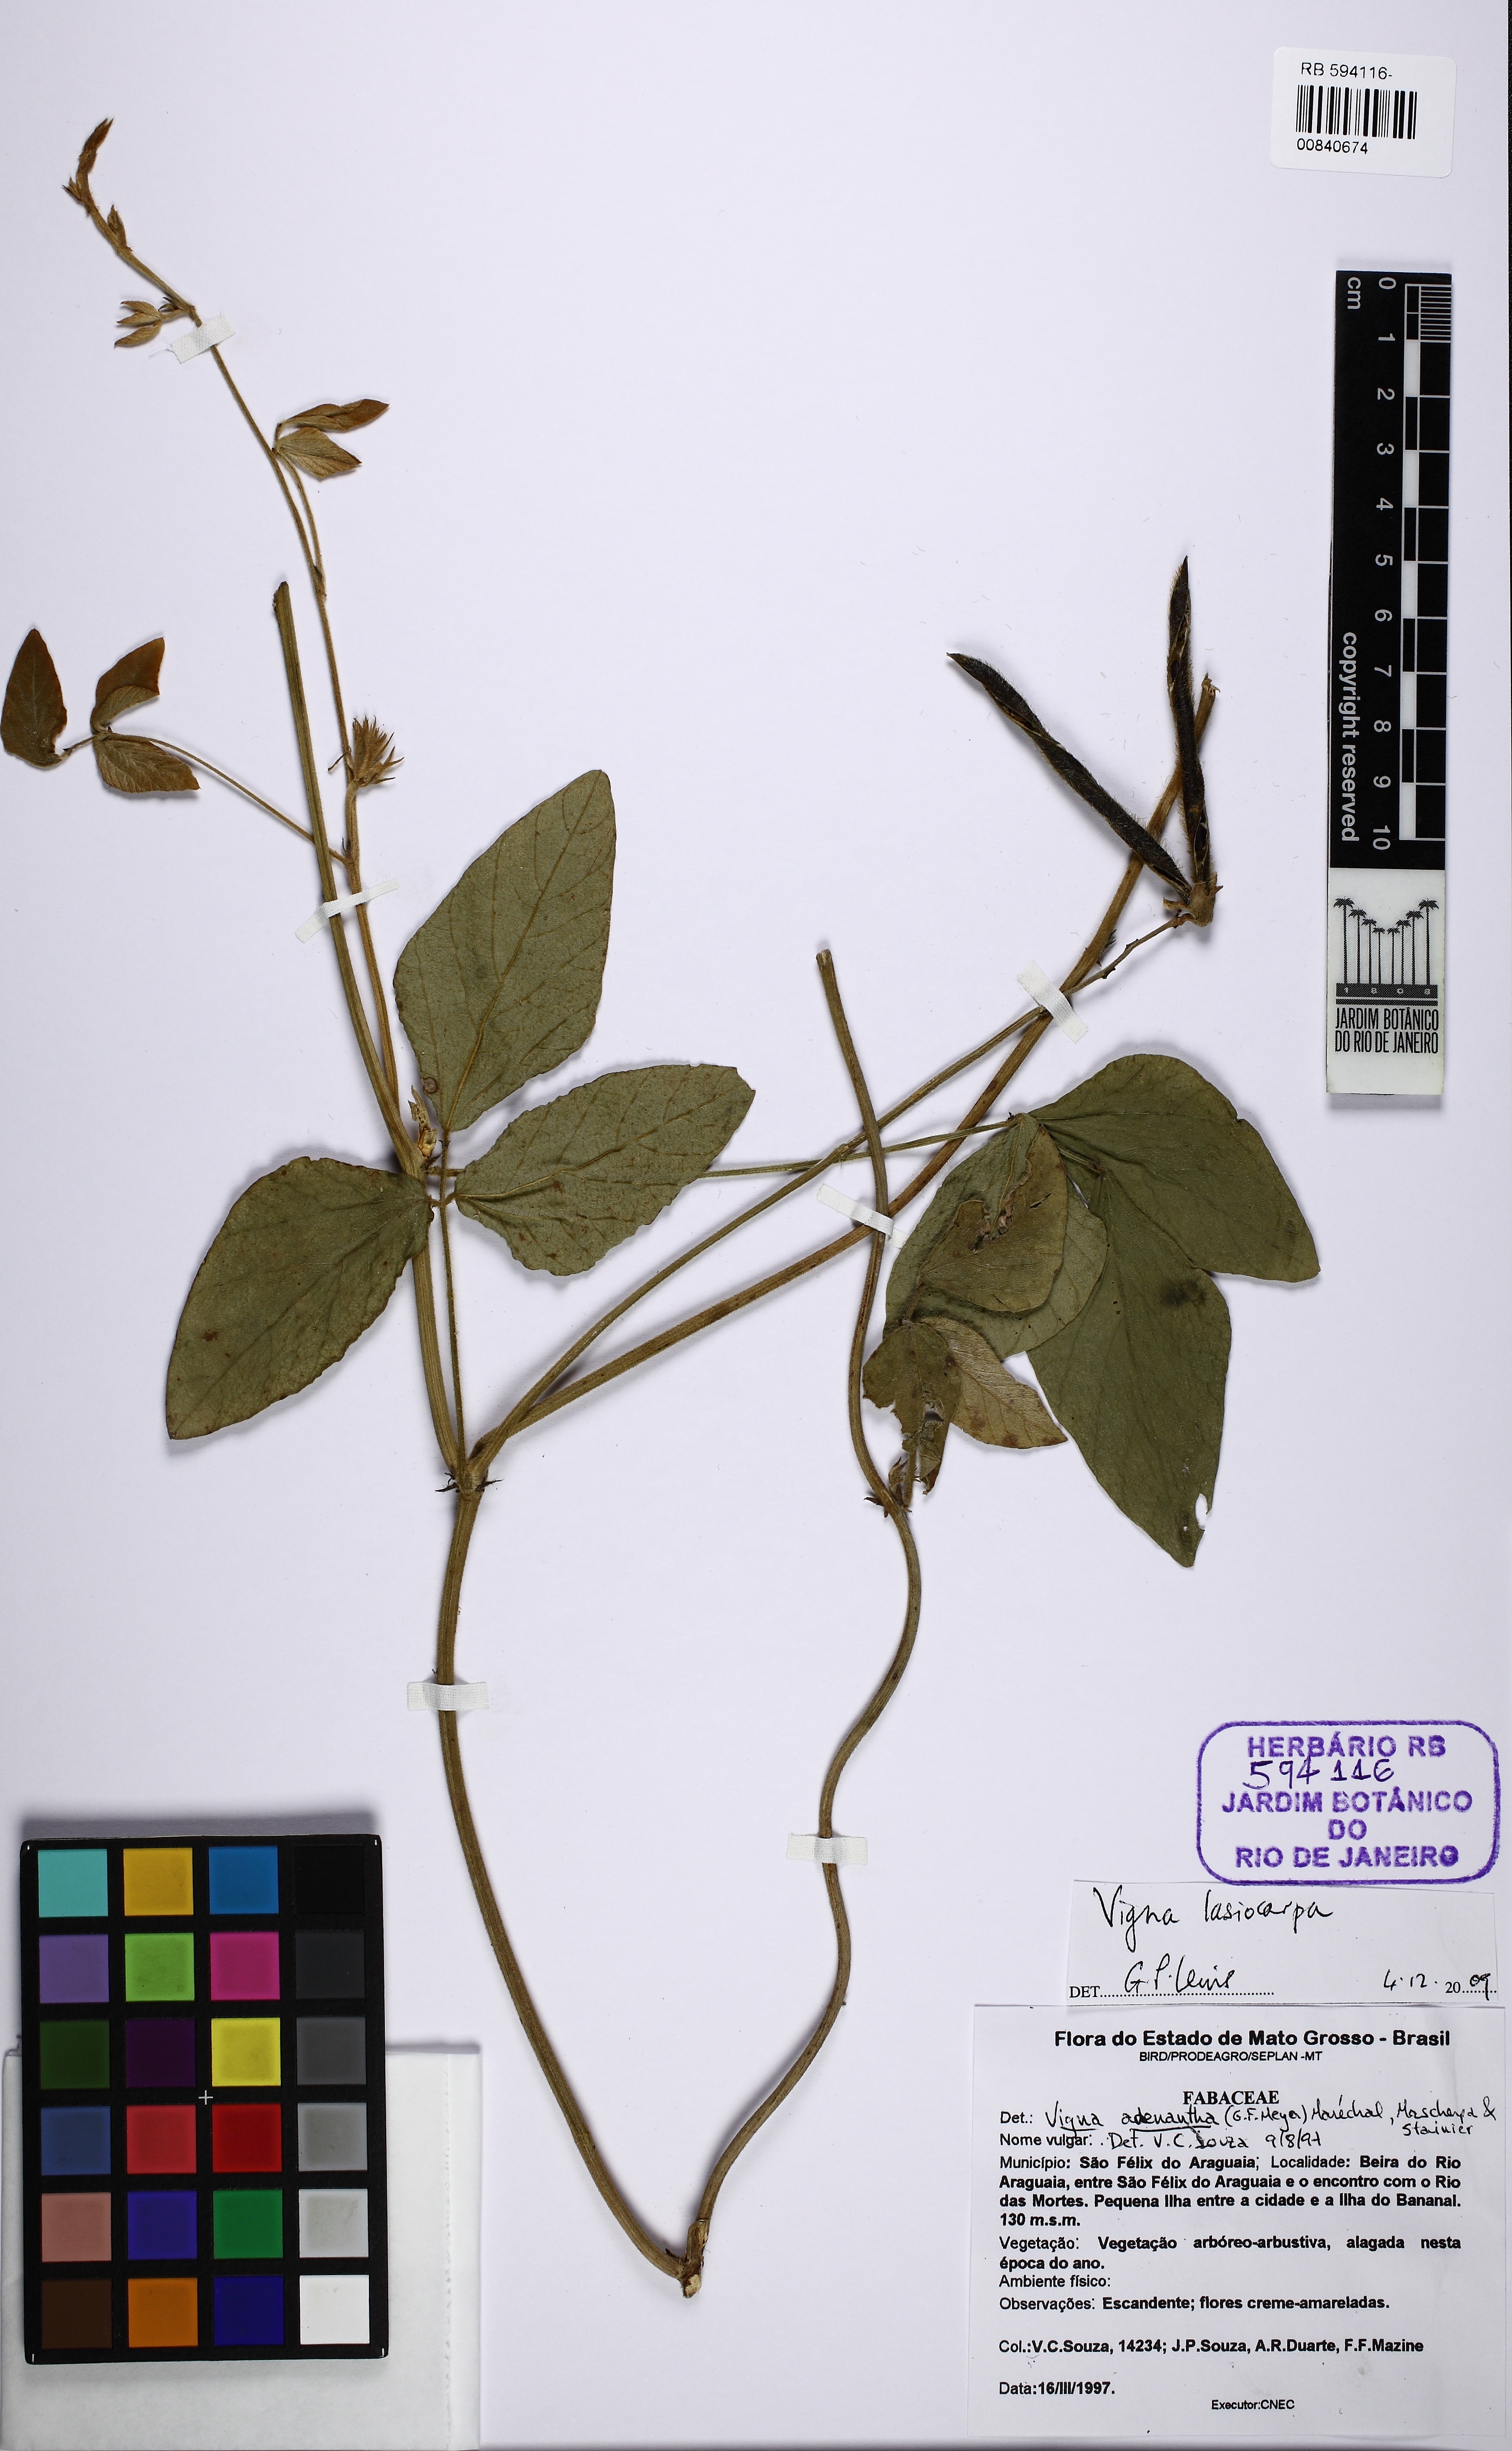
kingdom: Plantae
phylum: Tracheophyta
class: Magnoliopsida
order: Fabales
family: Fabaceae
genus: Vigna
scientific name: Vigna lasiocarpa
